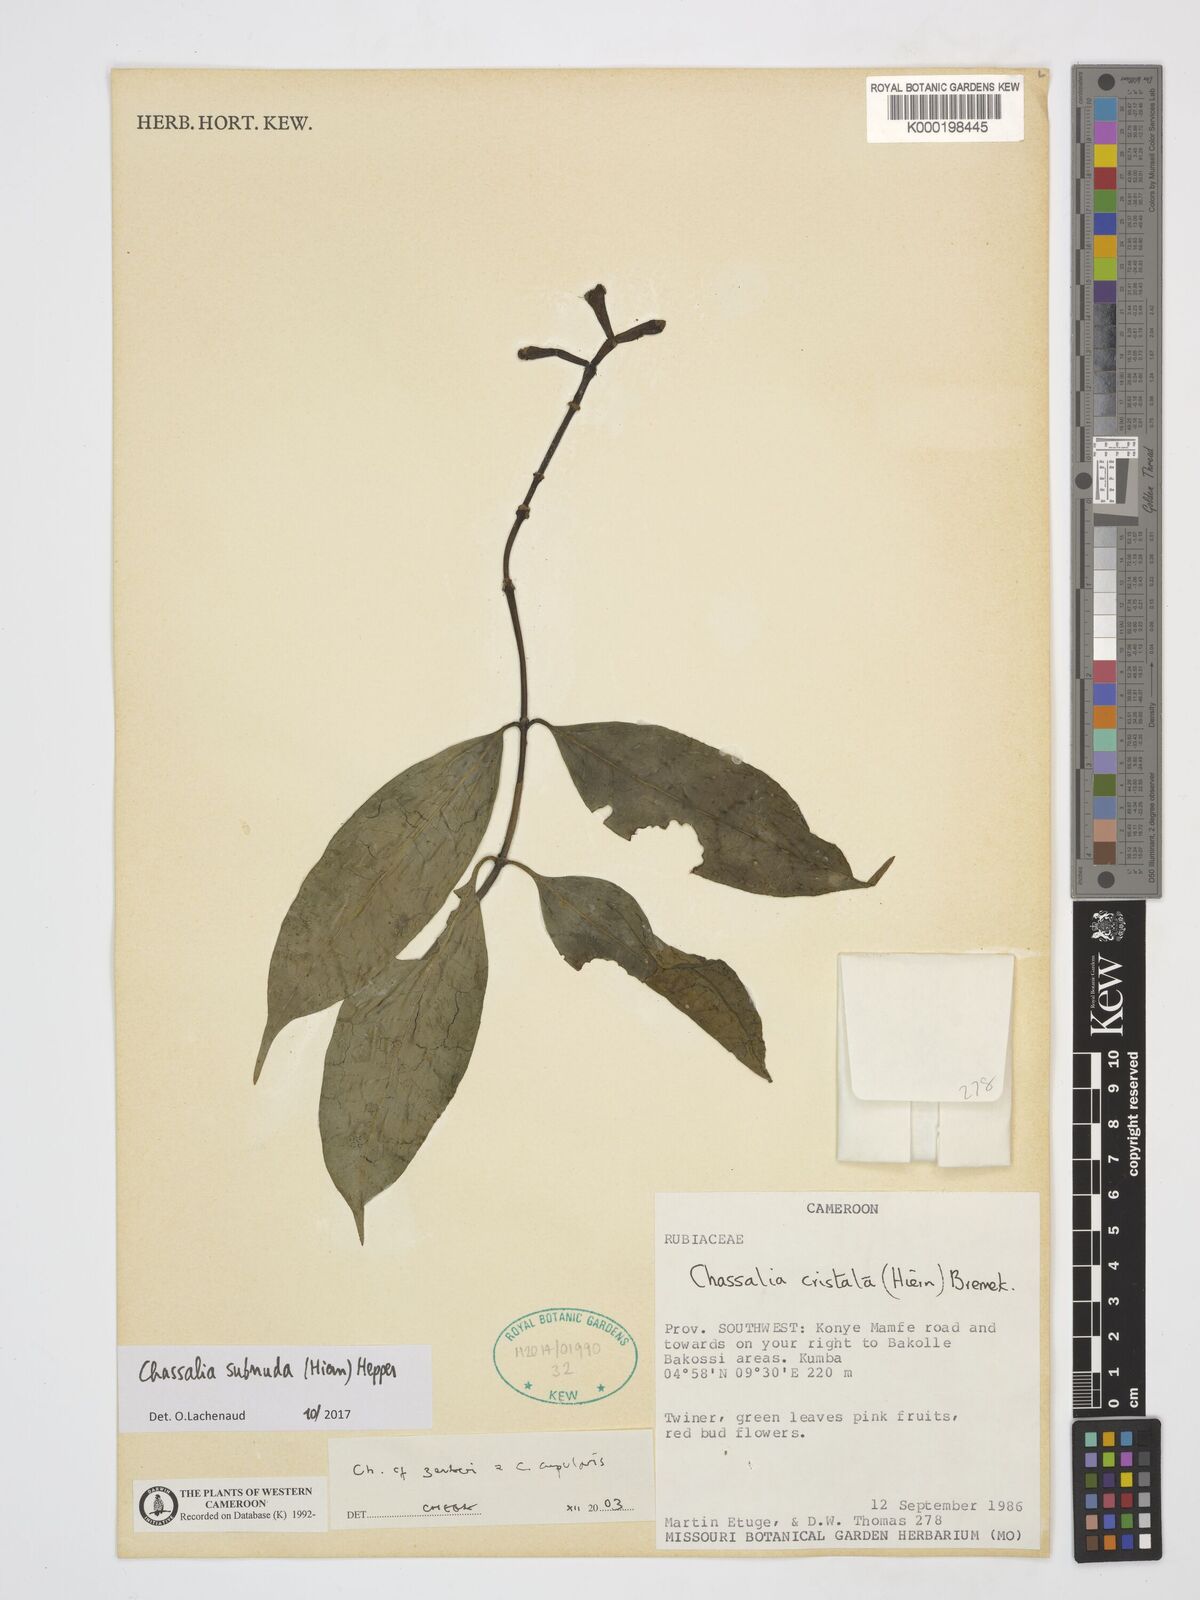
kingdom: Plantae
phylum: Tracheophyta
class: Magnoliopsida
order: Gentianales
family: Rubiaceae
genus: Chassalia
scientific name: Chassalia zenkeri
